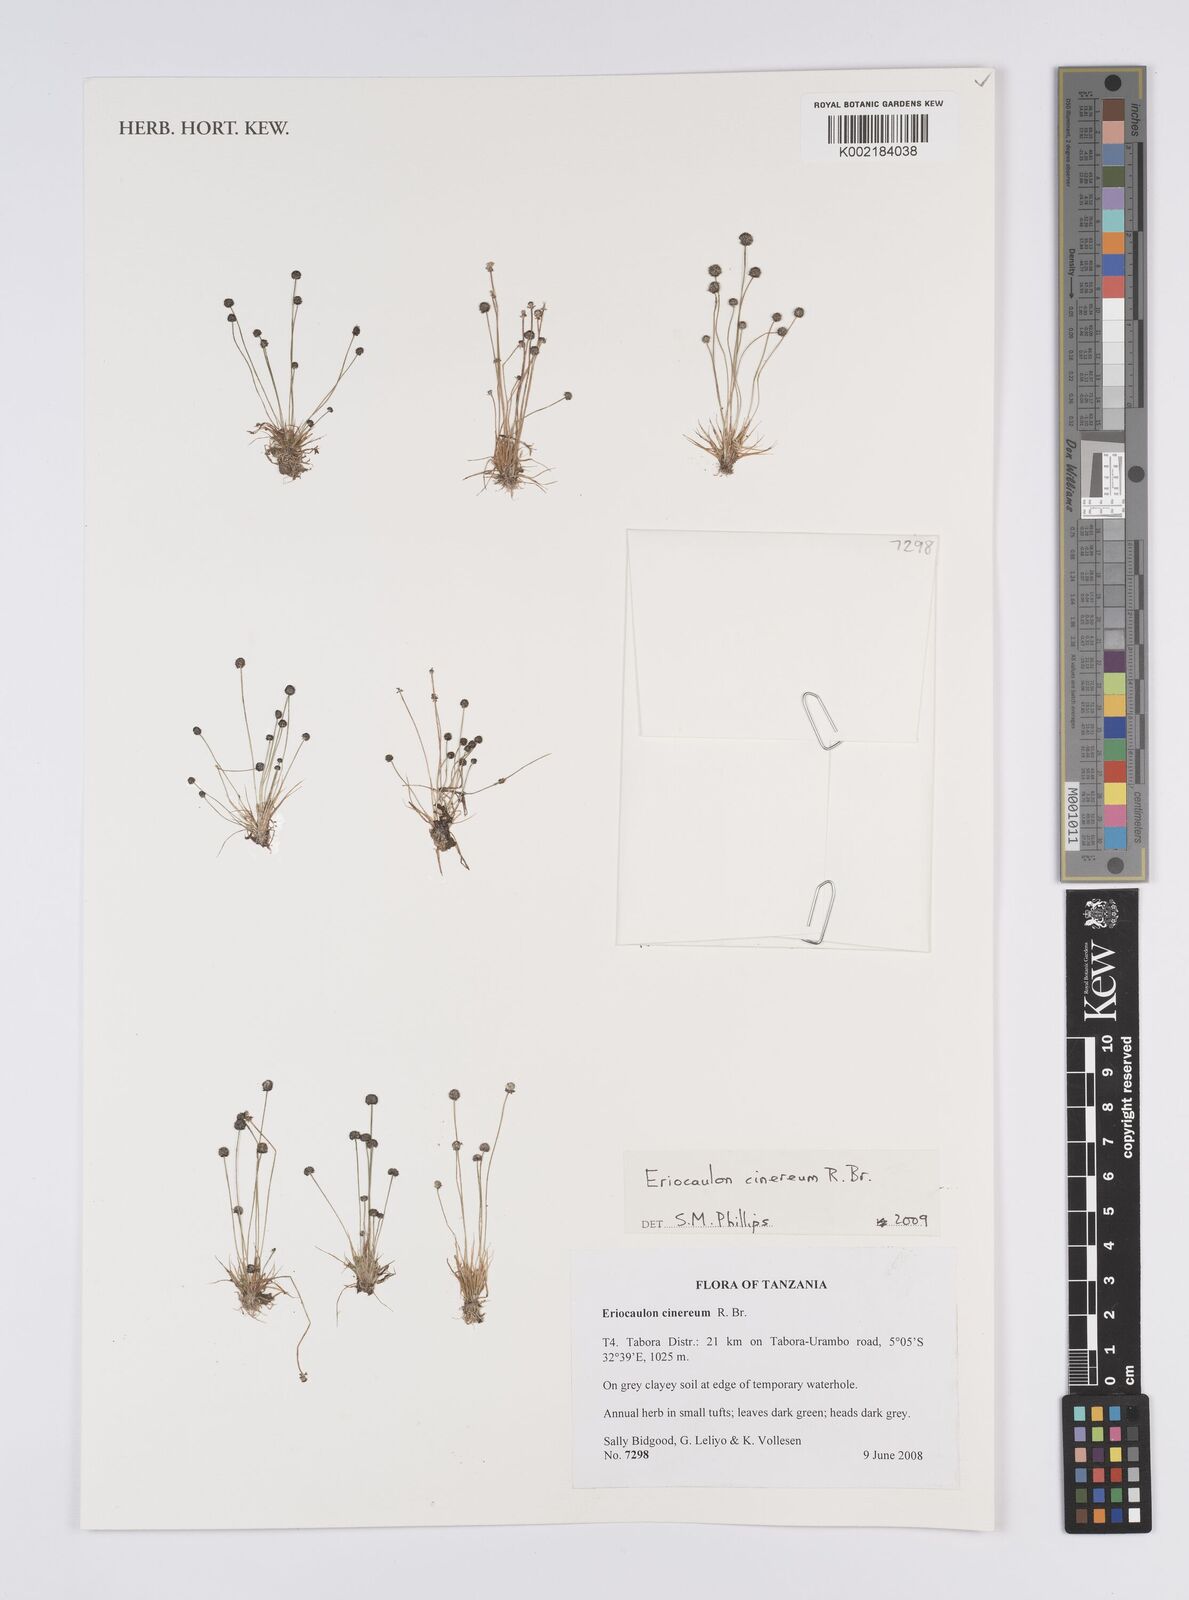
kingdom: Plantae
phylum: Tracheophyta
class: Liliopsida
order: Poales
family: Eriocaulaceae
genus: Eriocaulon
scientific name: Eriocaulon cinereum
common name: Ashy pipewort
